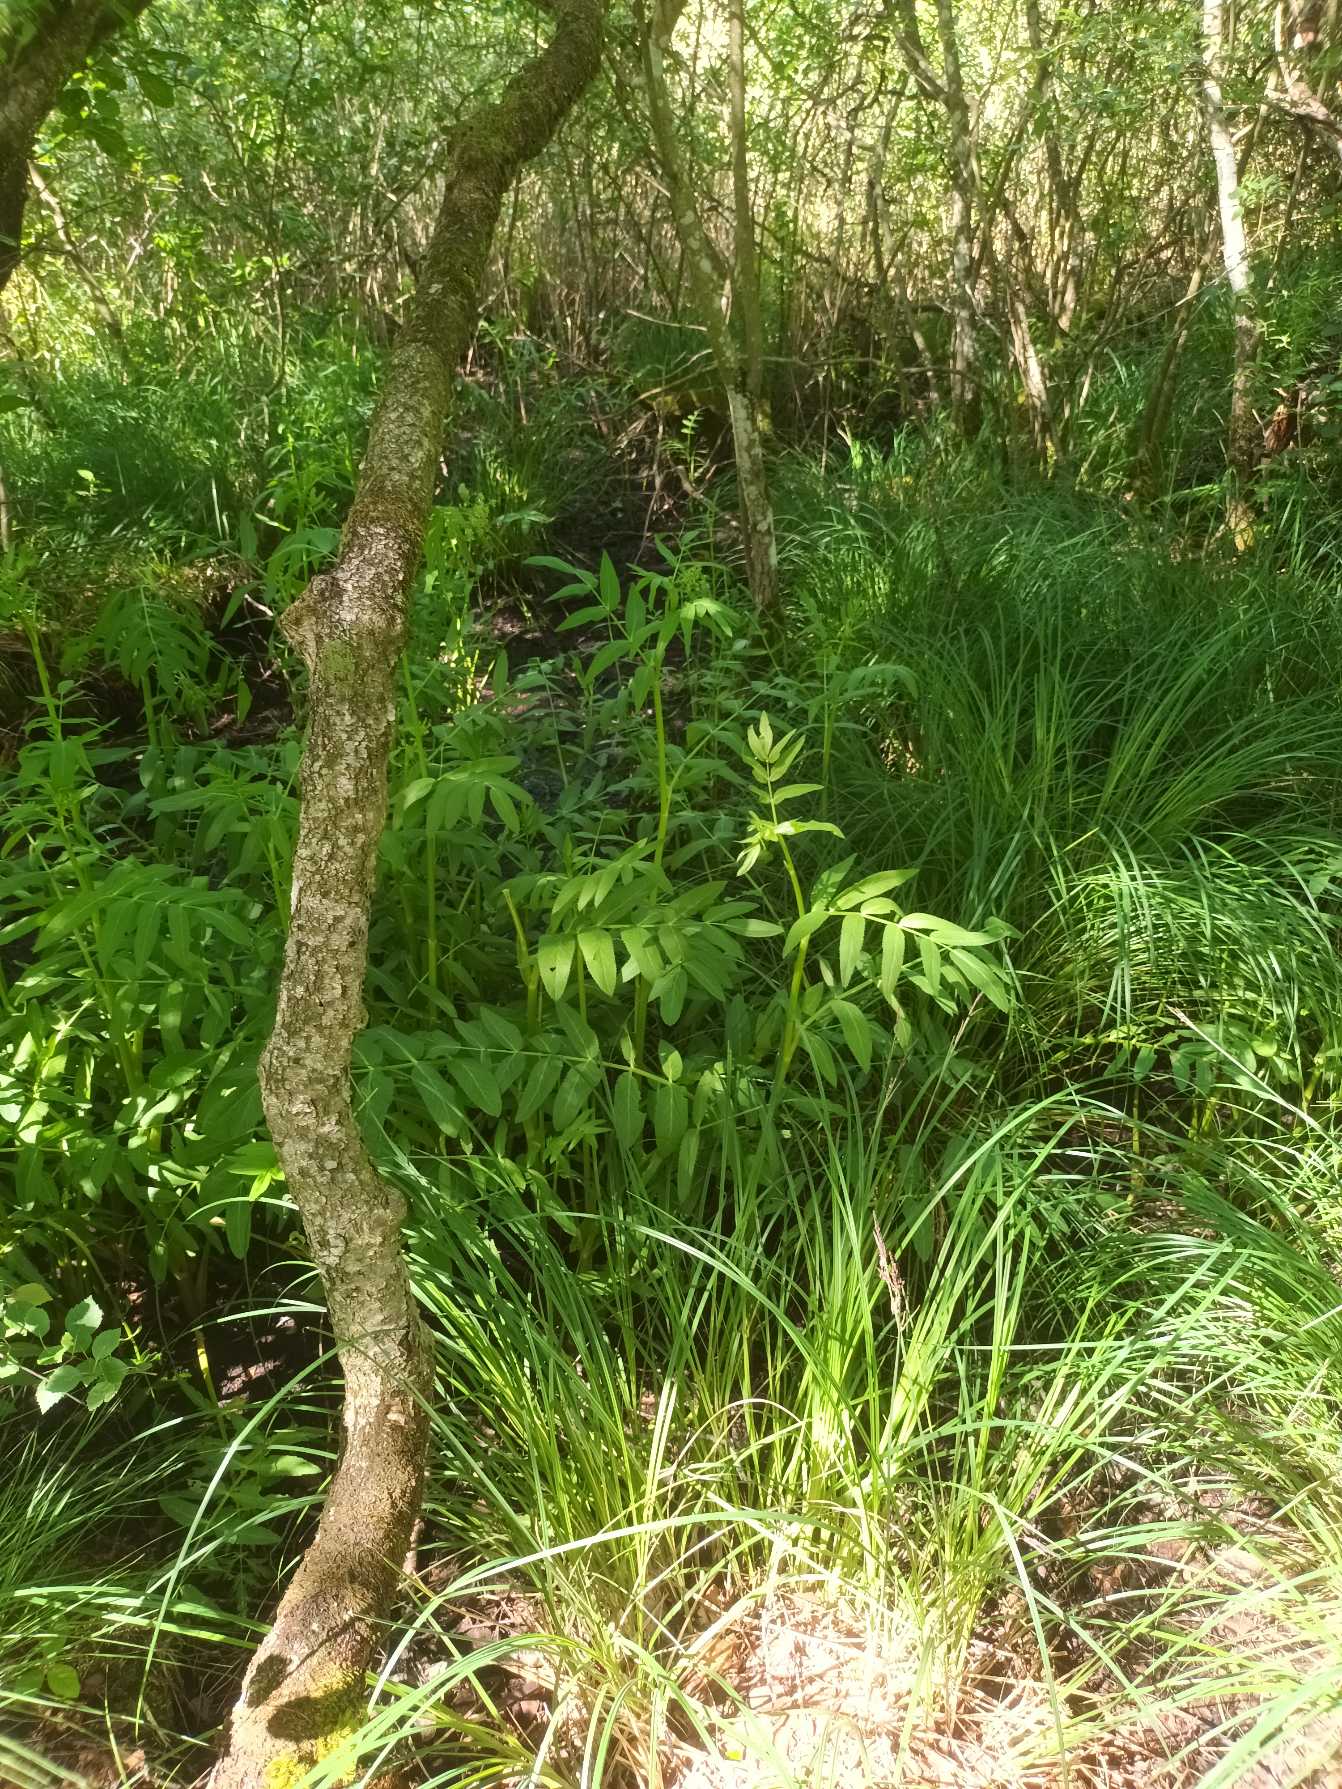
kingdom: Plantae
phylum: Tracheophyta
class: Magnoliopsida
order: Apiales
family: Apiaceae
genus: Sium
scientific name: Sium latifolium
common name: Bredbladet mærke
